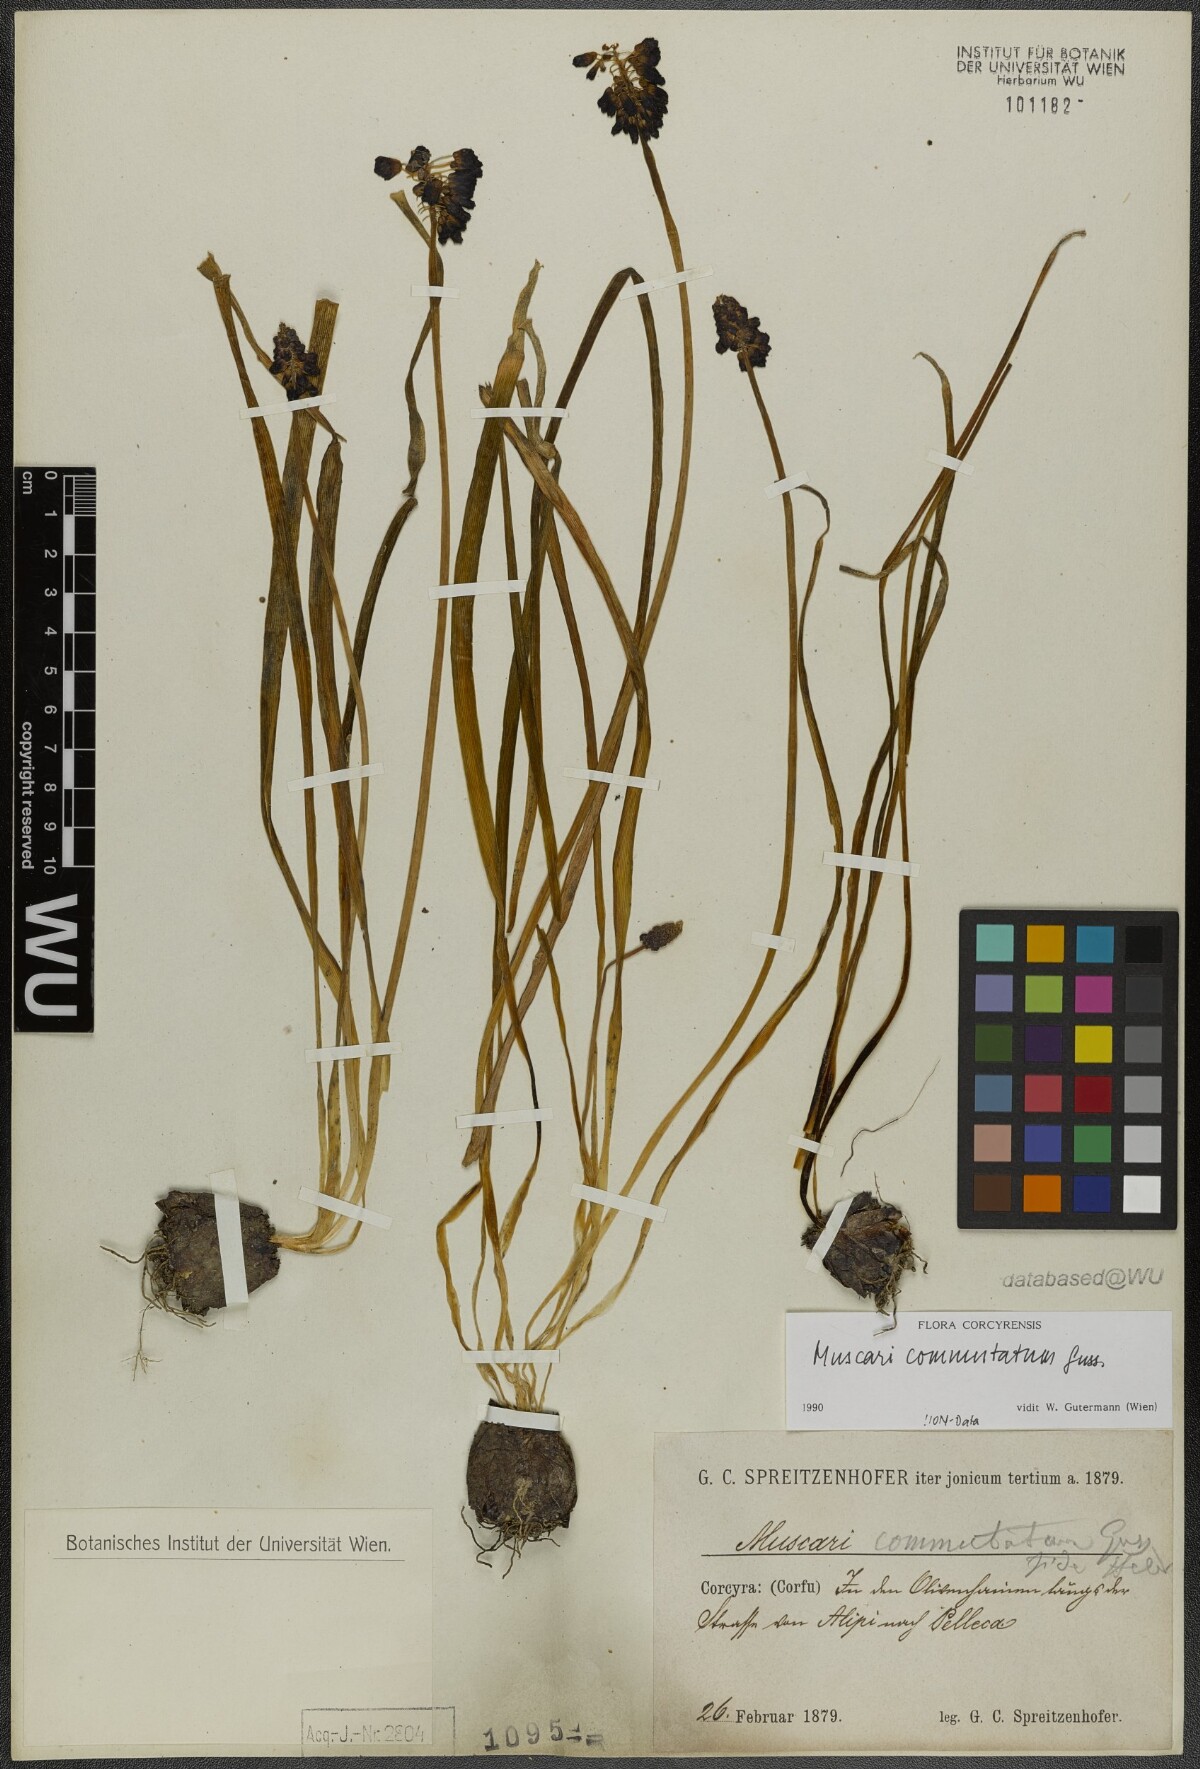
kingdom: Plantae
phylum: Tracheophyta
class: Liliopsida
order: Asparagales
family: Asparagaceae
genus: Muscari
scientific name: Muscari commutatum
